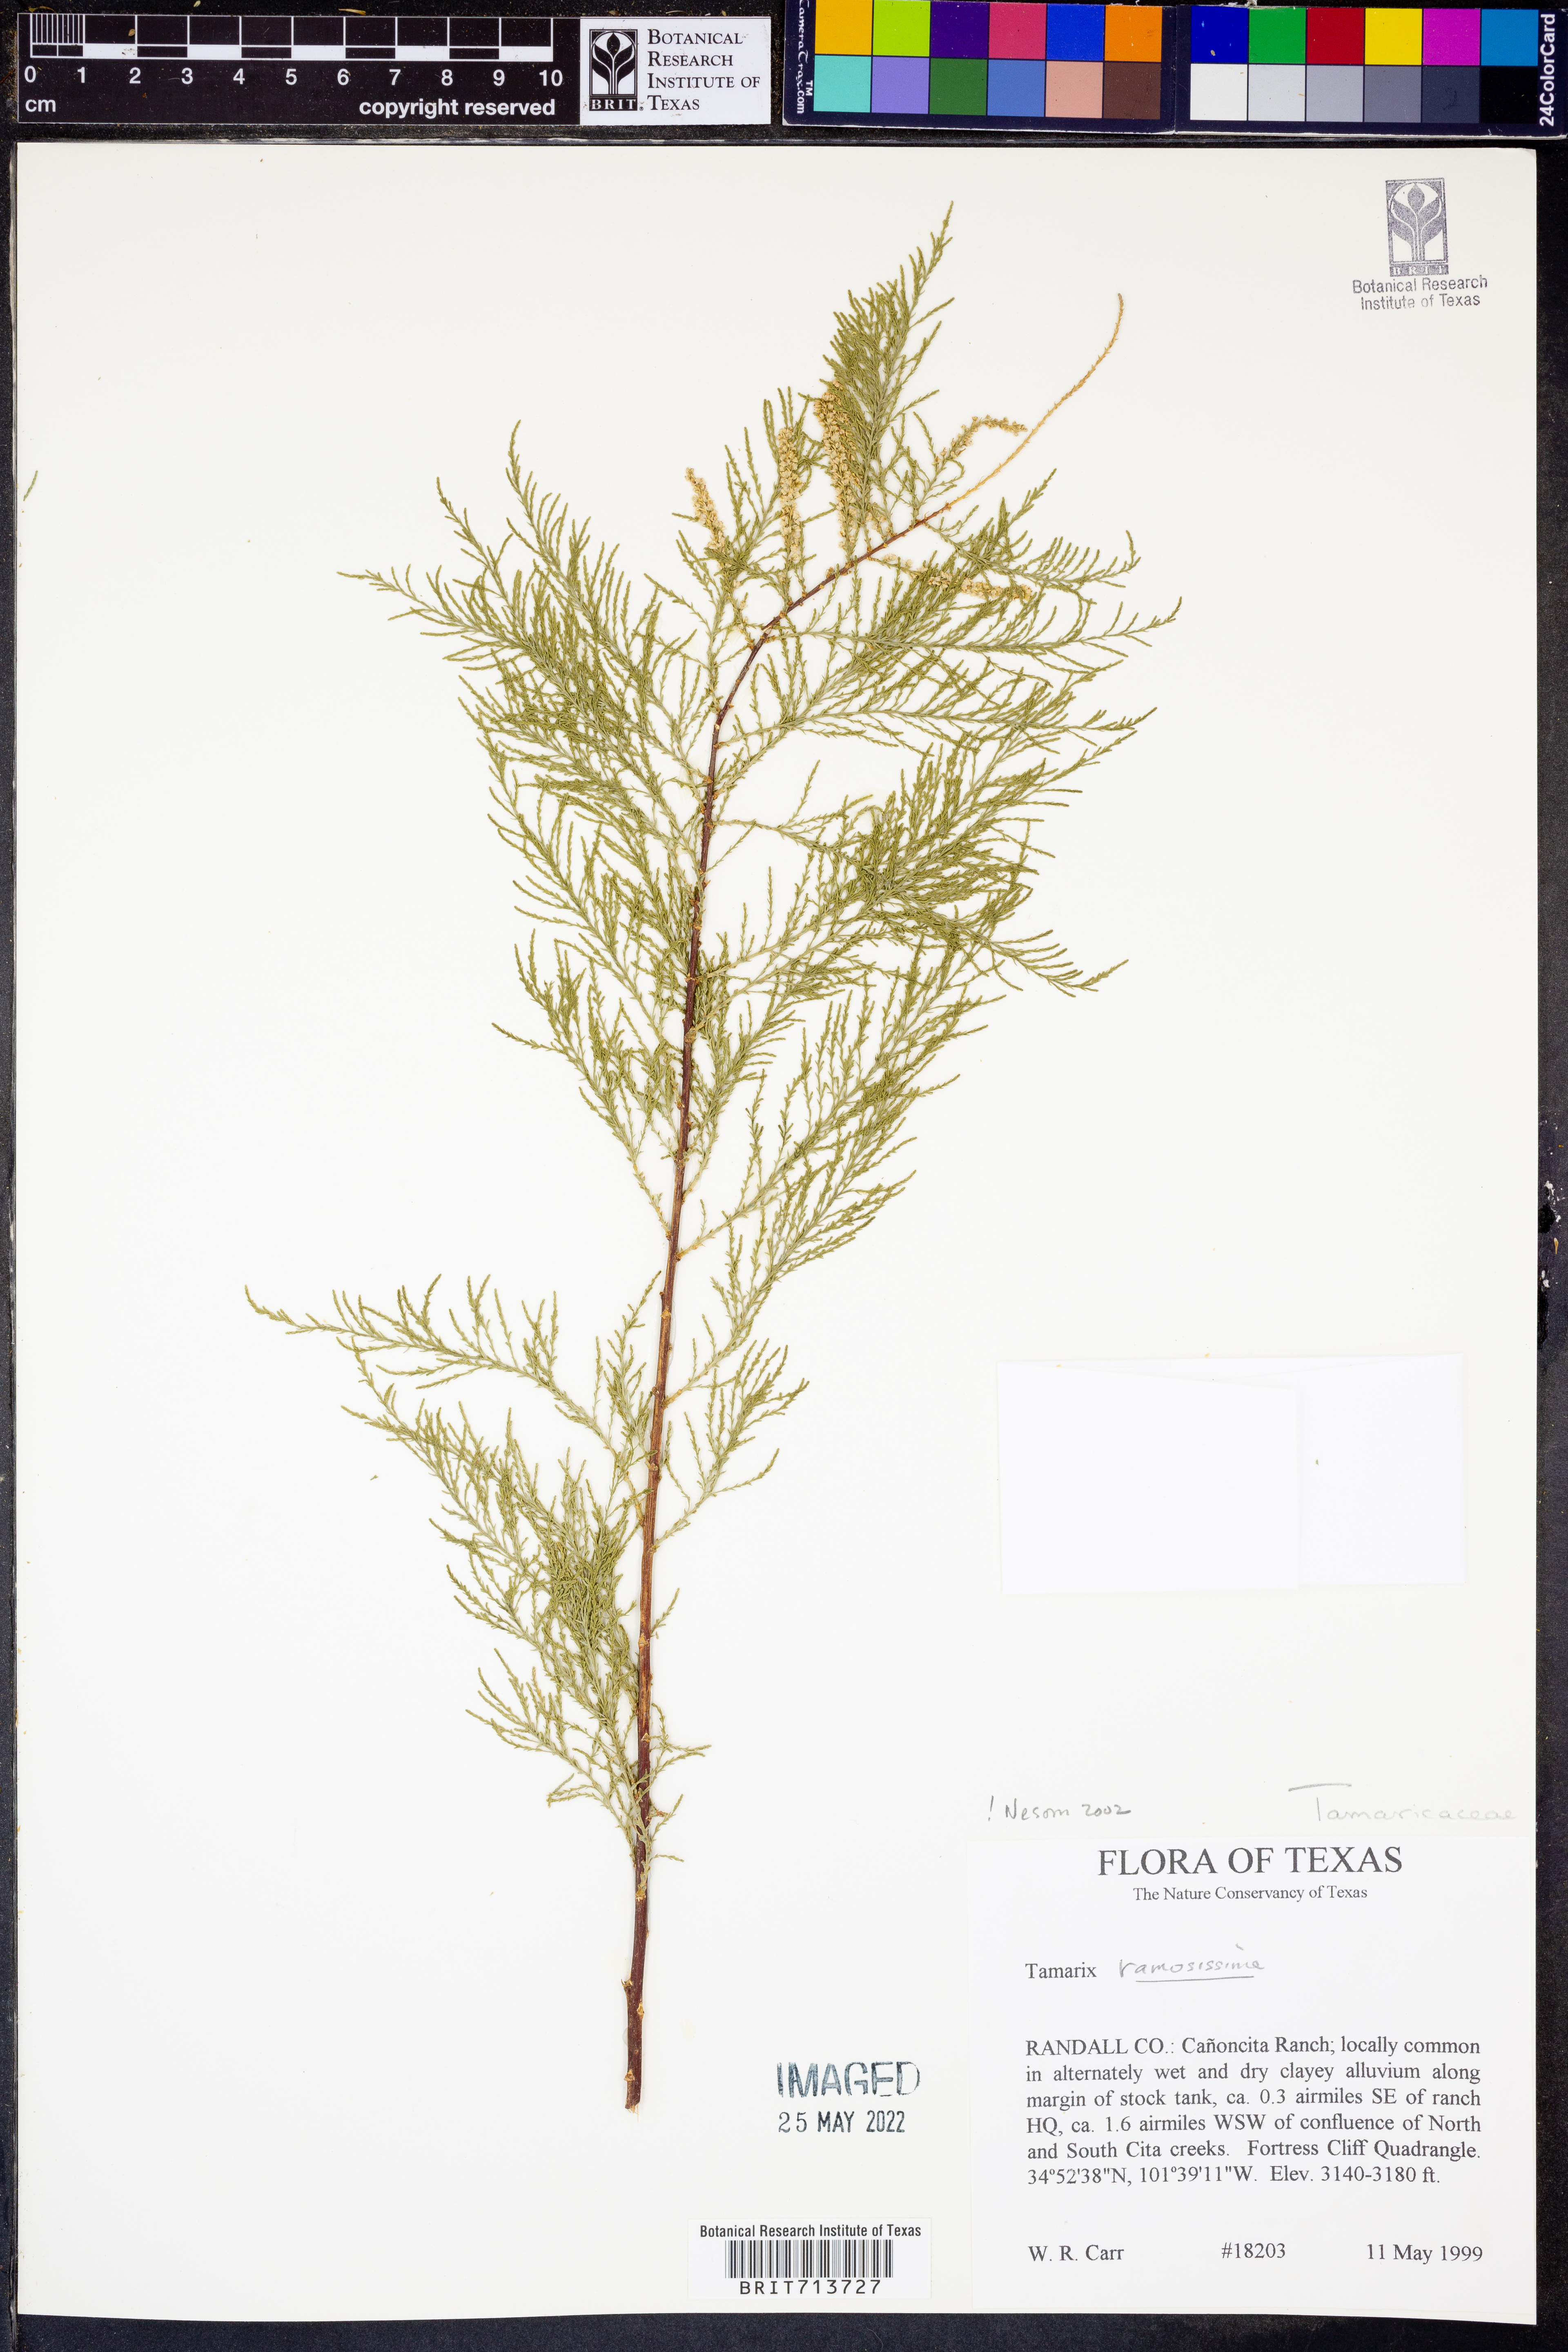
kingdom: Plantae
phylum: Tracheophyta
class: Magnoliopsida
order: Caryophyllales
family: Tamaricaceae
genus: Tamarix
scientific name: Tamarix ramosissima
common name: Pink tamarisk
